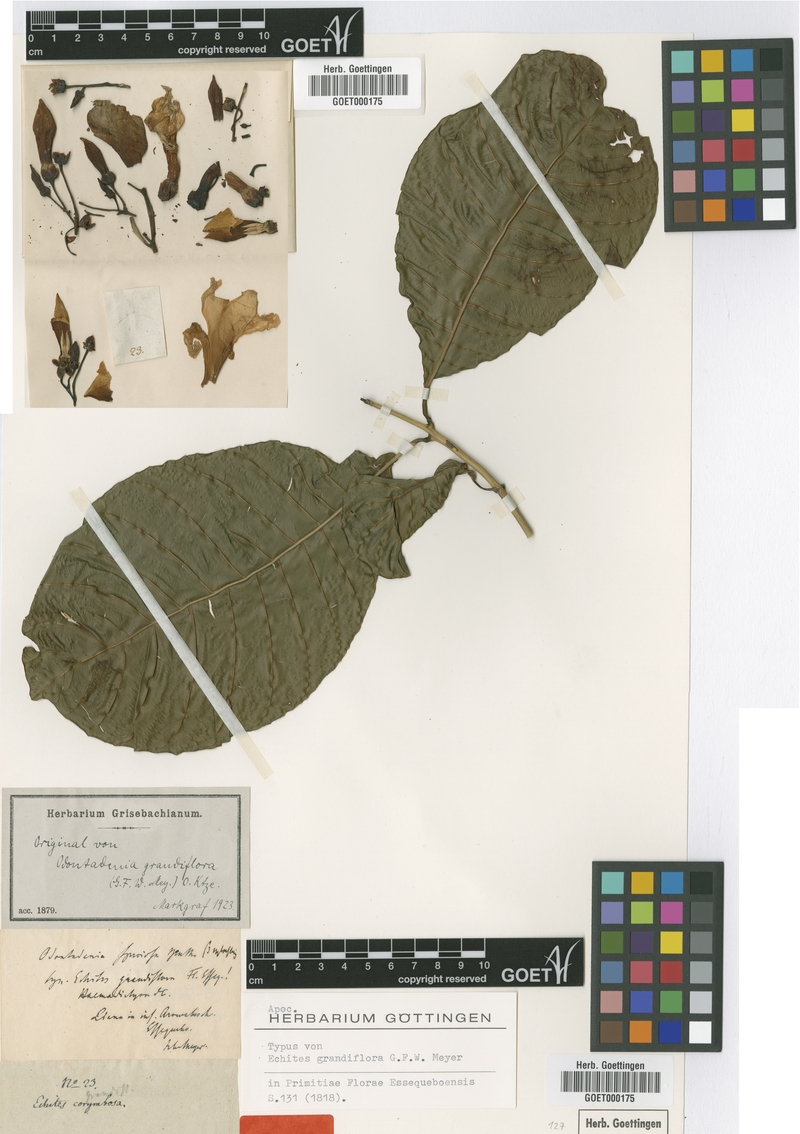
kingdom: Plantae
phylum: Tracheophyta
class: Magnoliopsida
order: Gentianales
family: Apocynaceae
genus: Odontadenia
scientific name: Odontadenia semidigyna
